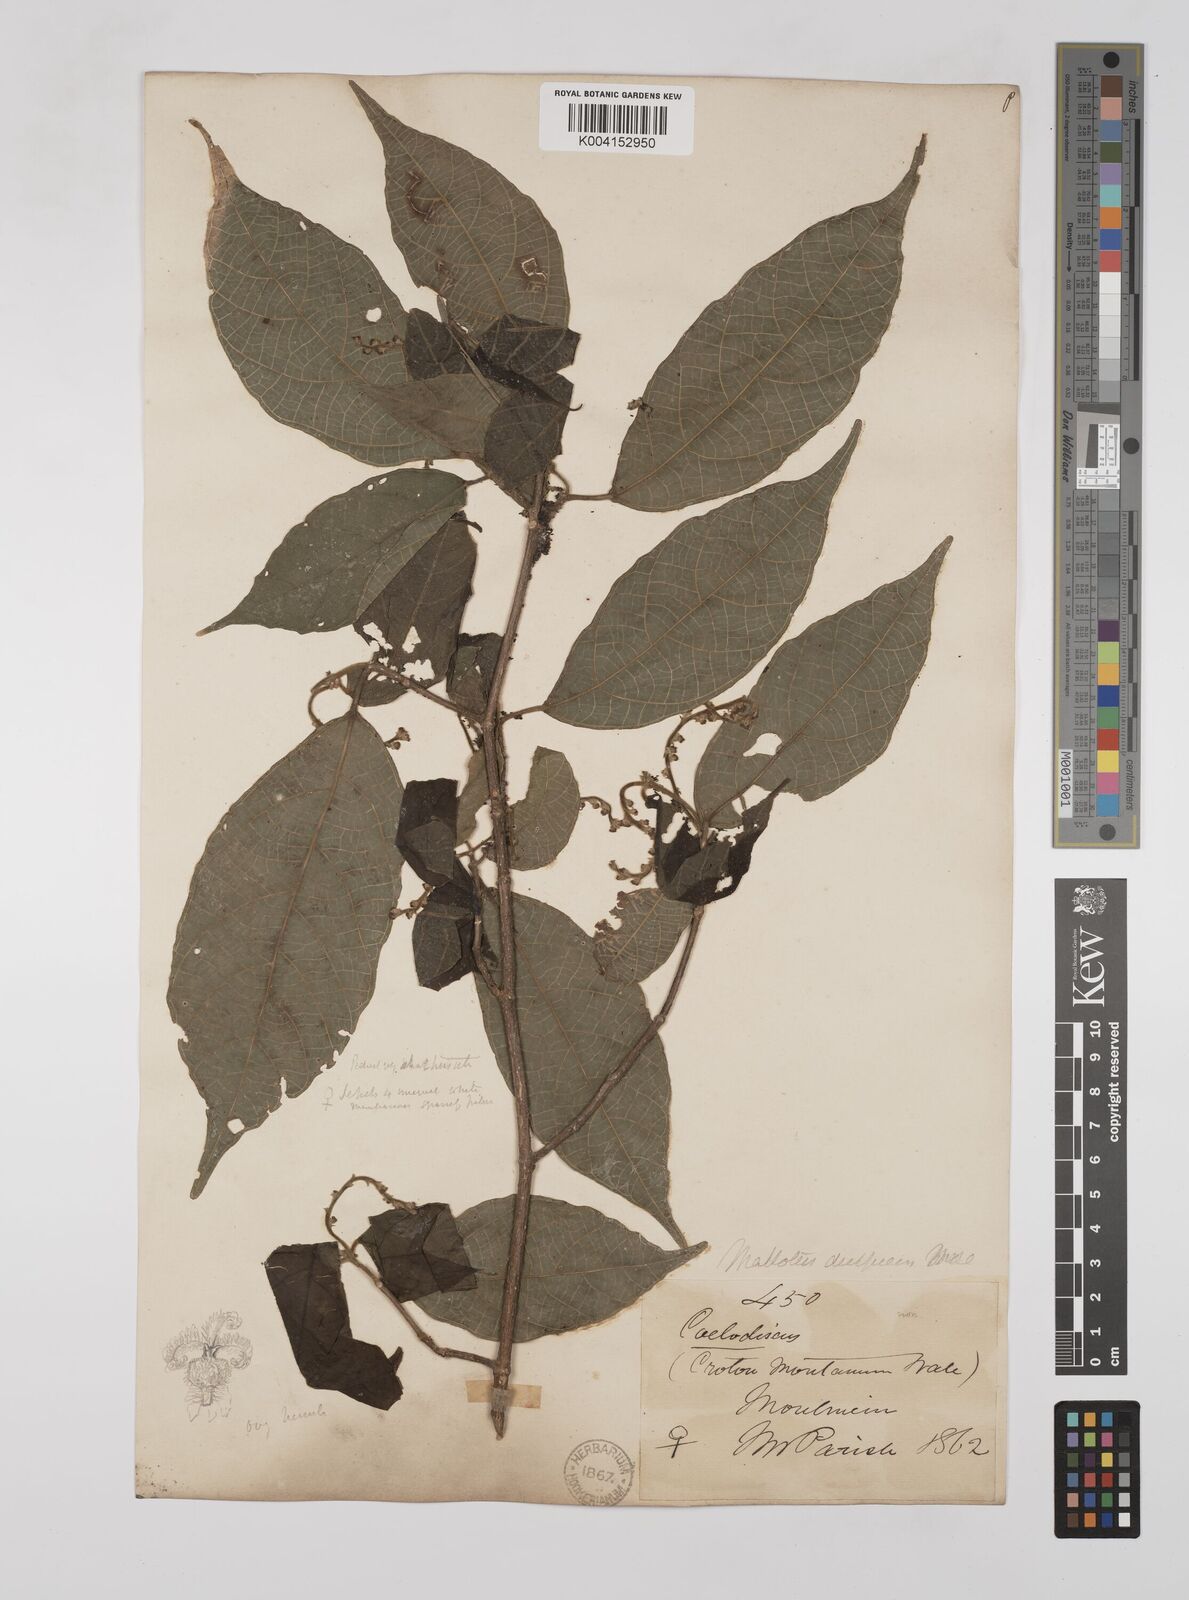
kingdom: Plantae
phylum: Tracheophyta
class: Magnoliopsida
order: Malpighiales
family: Euphorbiaceae
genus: Mallotus
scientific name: Mallotus decipiens
